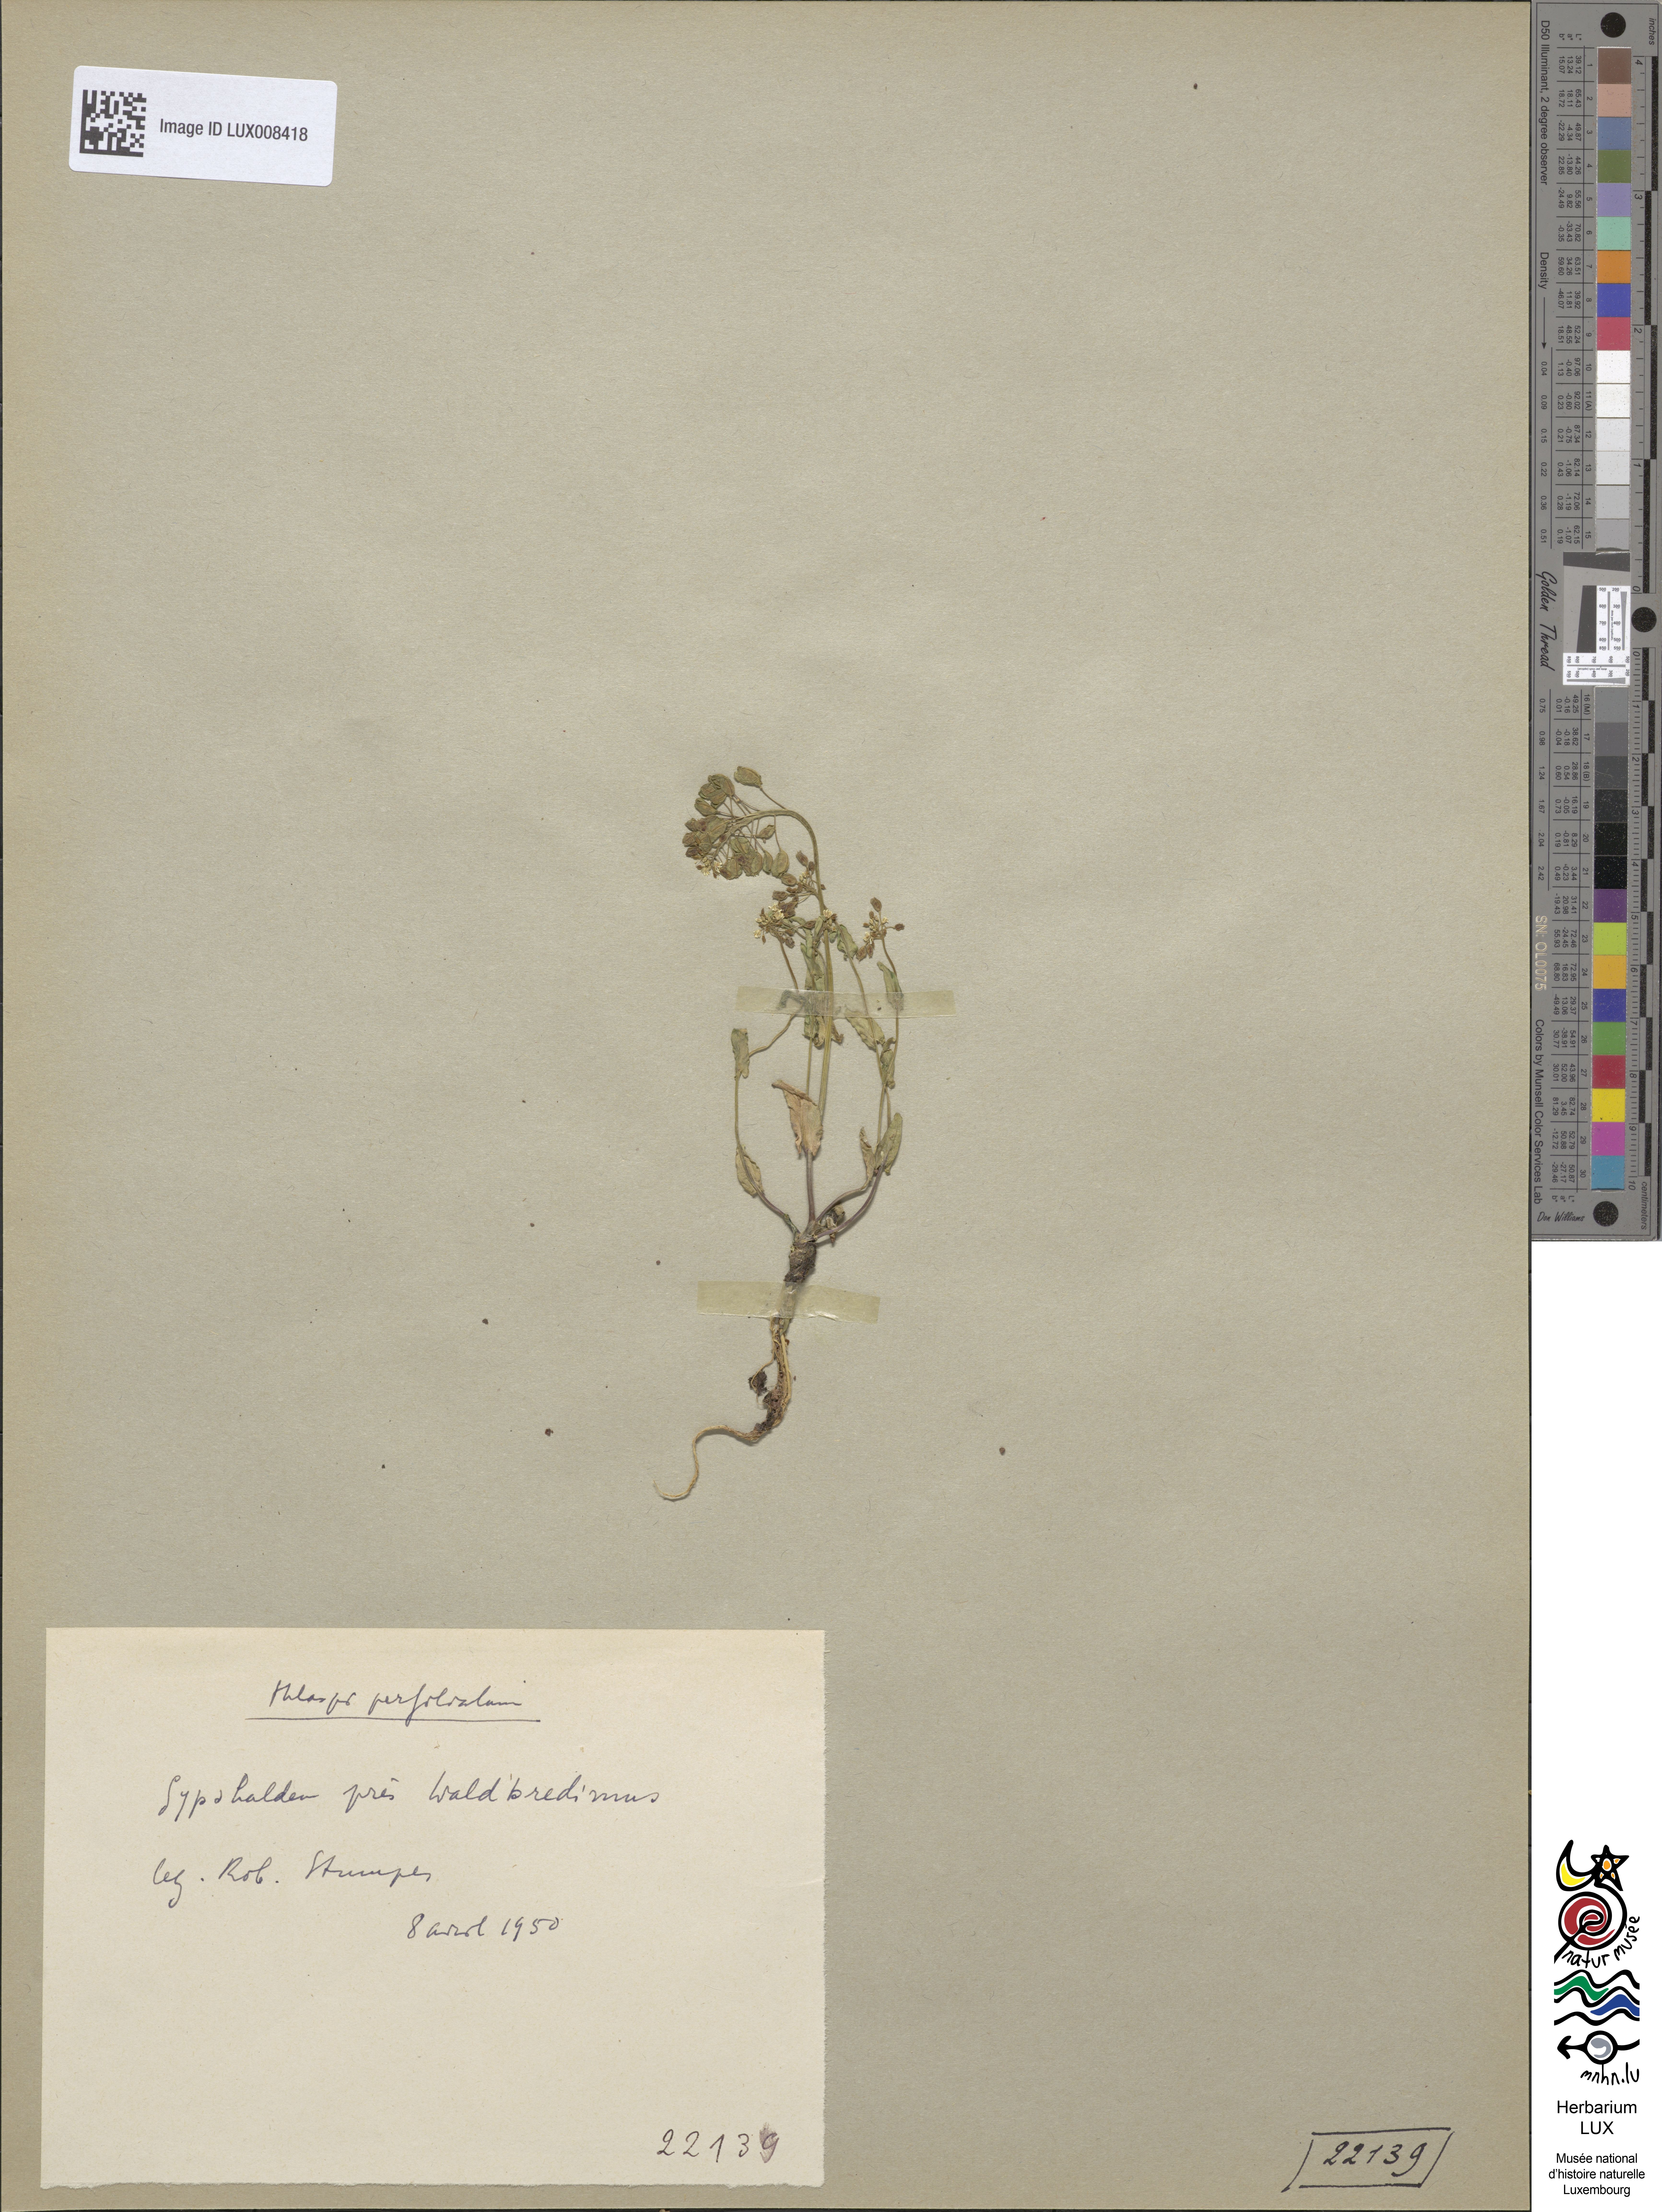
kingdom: Plantae
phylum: Tracheophyta
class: Magnoliopsida
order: Brassicales
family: Brassicaceae
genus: Noccaea
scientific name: Noccaea perfoliata
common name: Perfoliate pennycress
